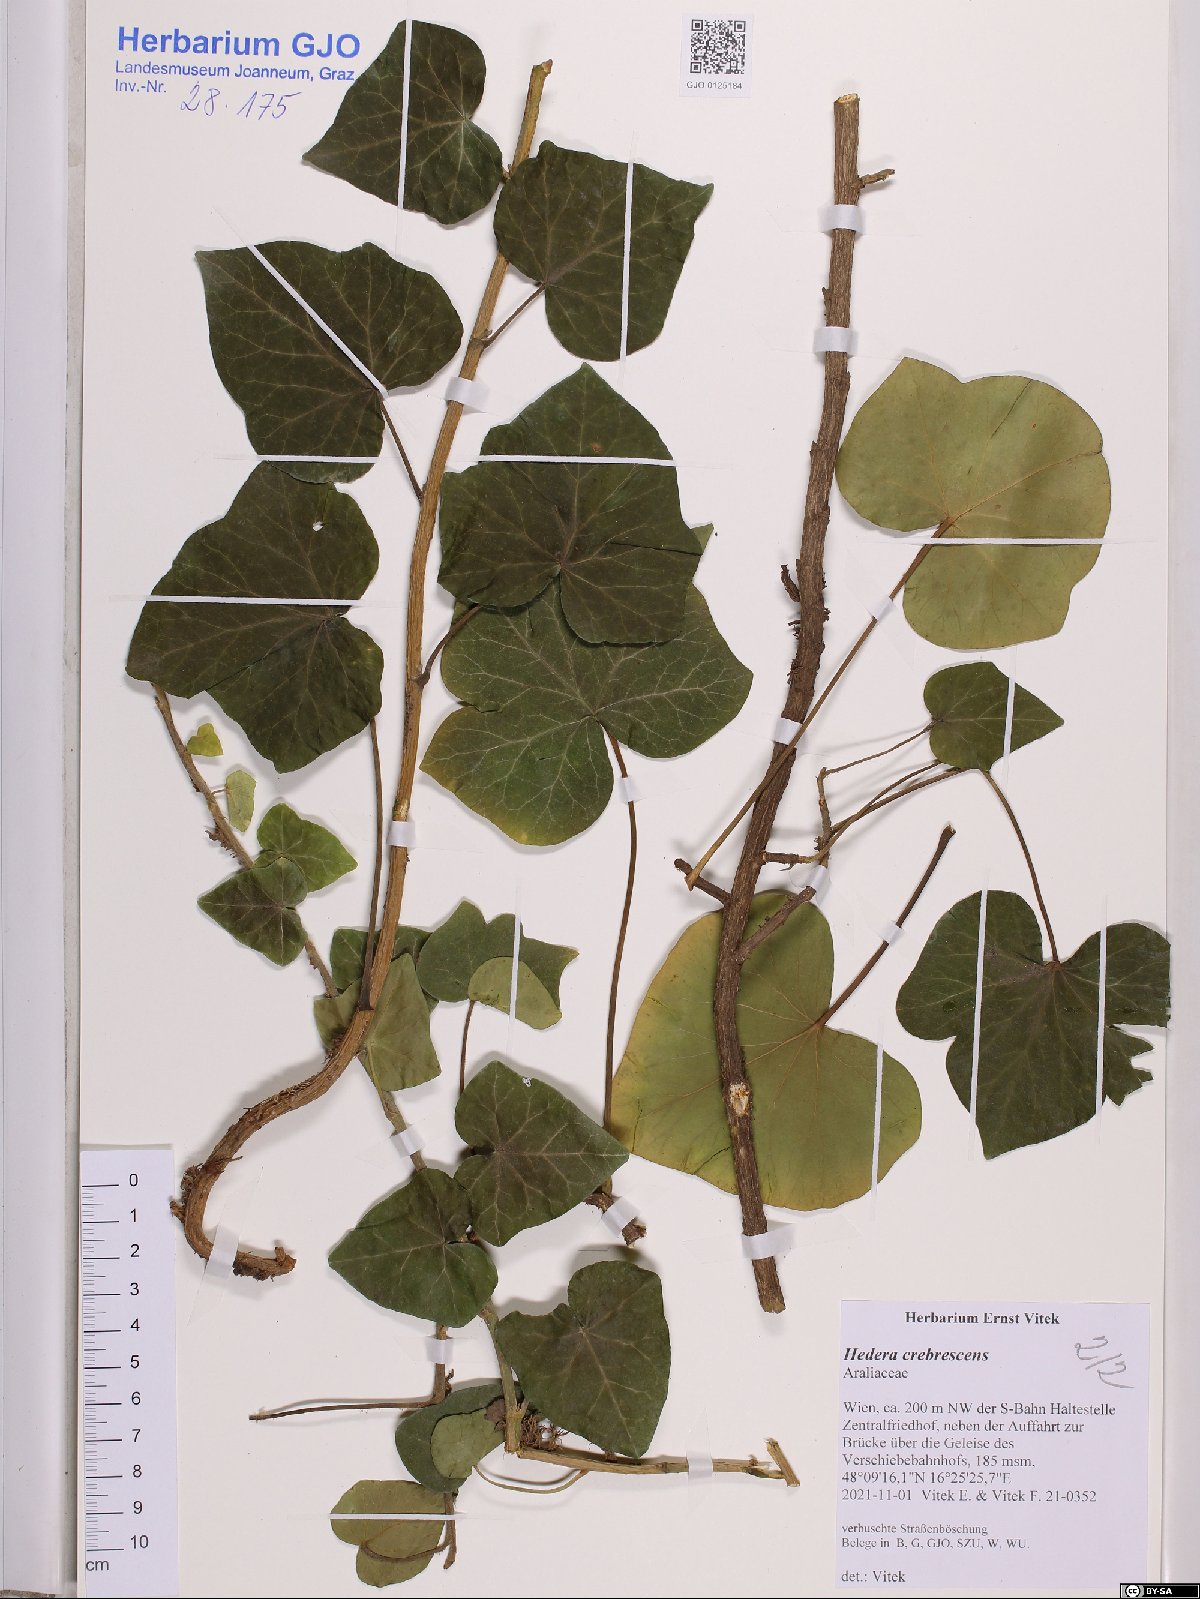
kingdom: Plantae
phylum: Tracheophyta
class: Magnoliopsida
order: Apiales
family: Araliaceae
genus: Hedera
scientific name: Hedera crebrescens
